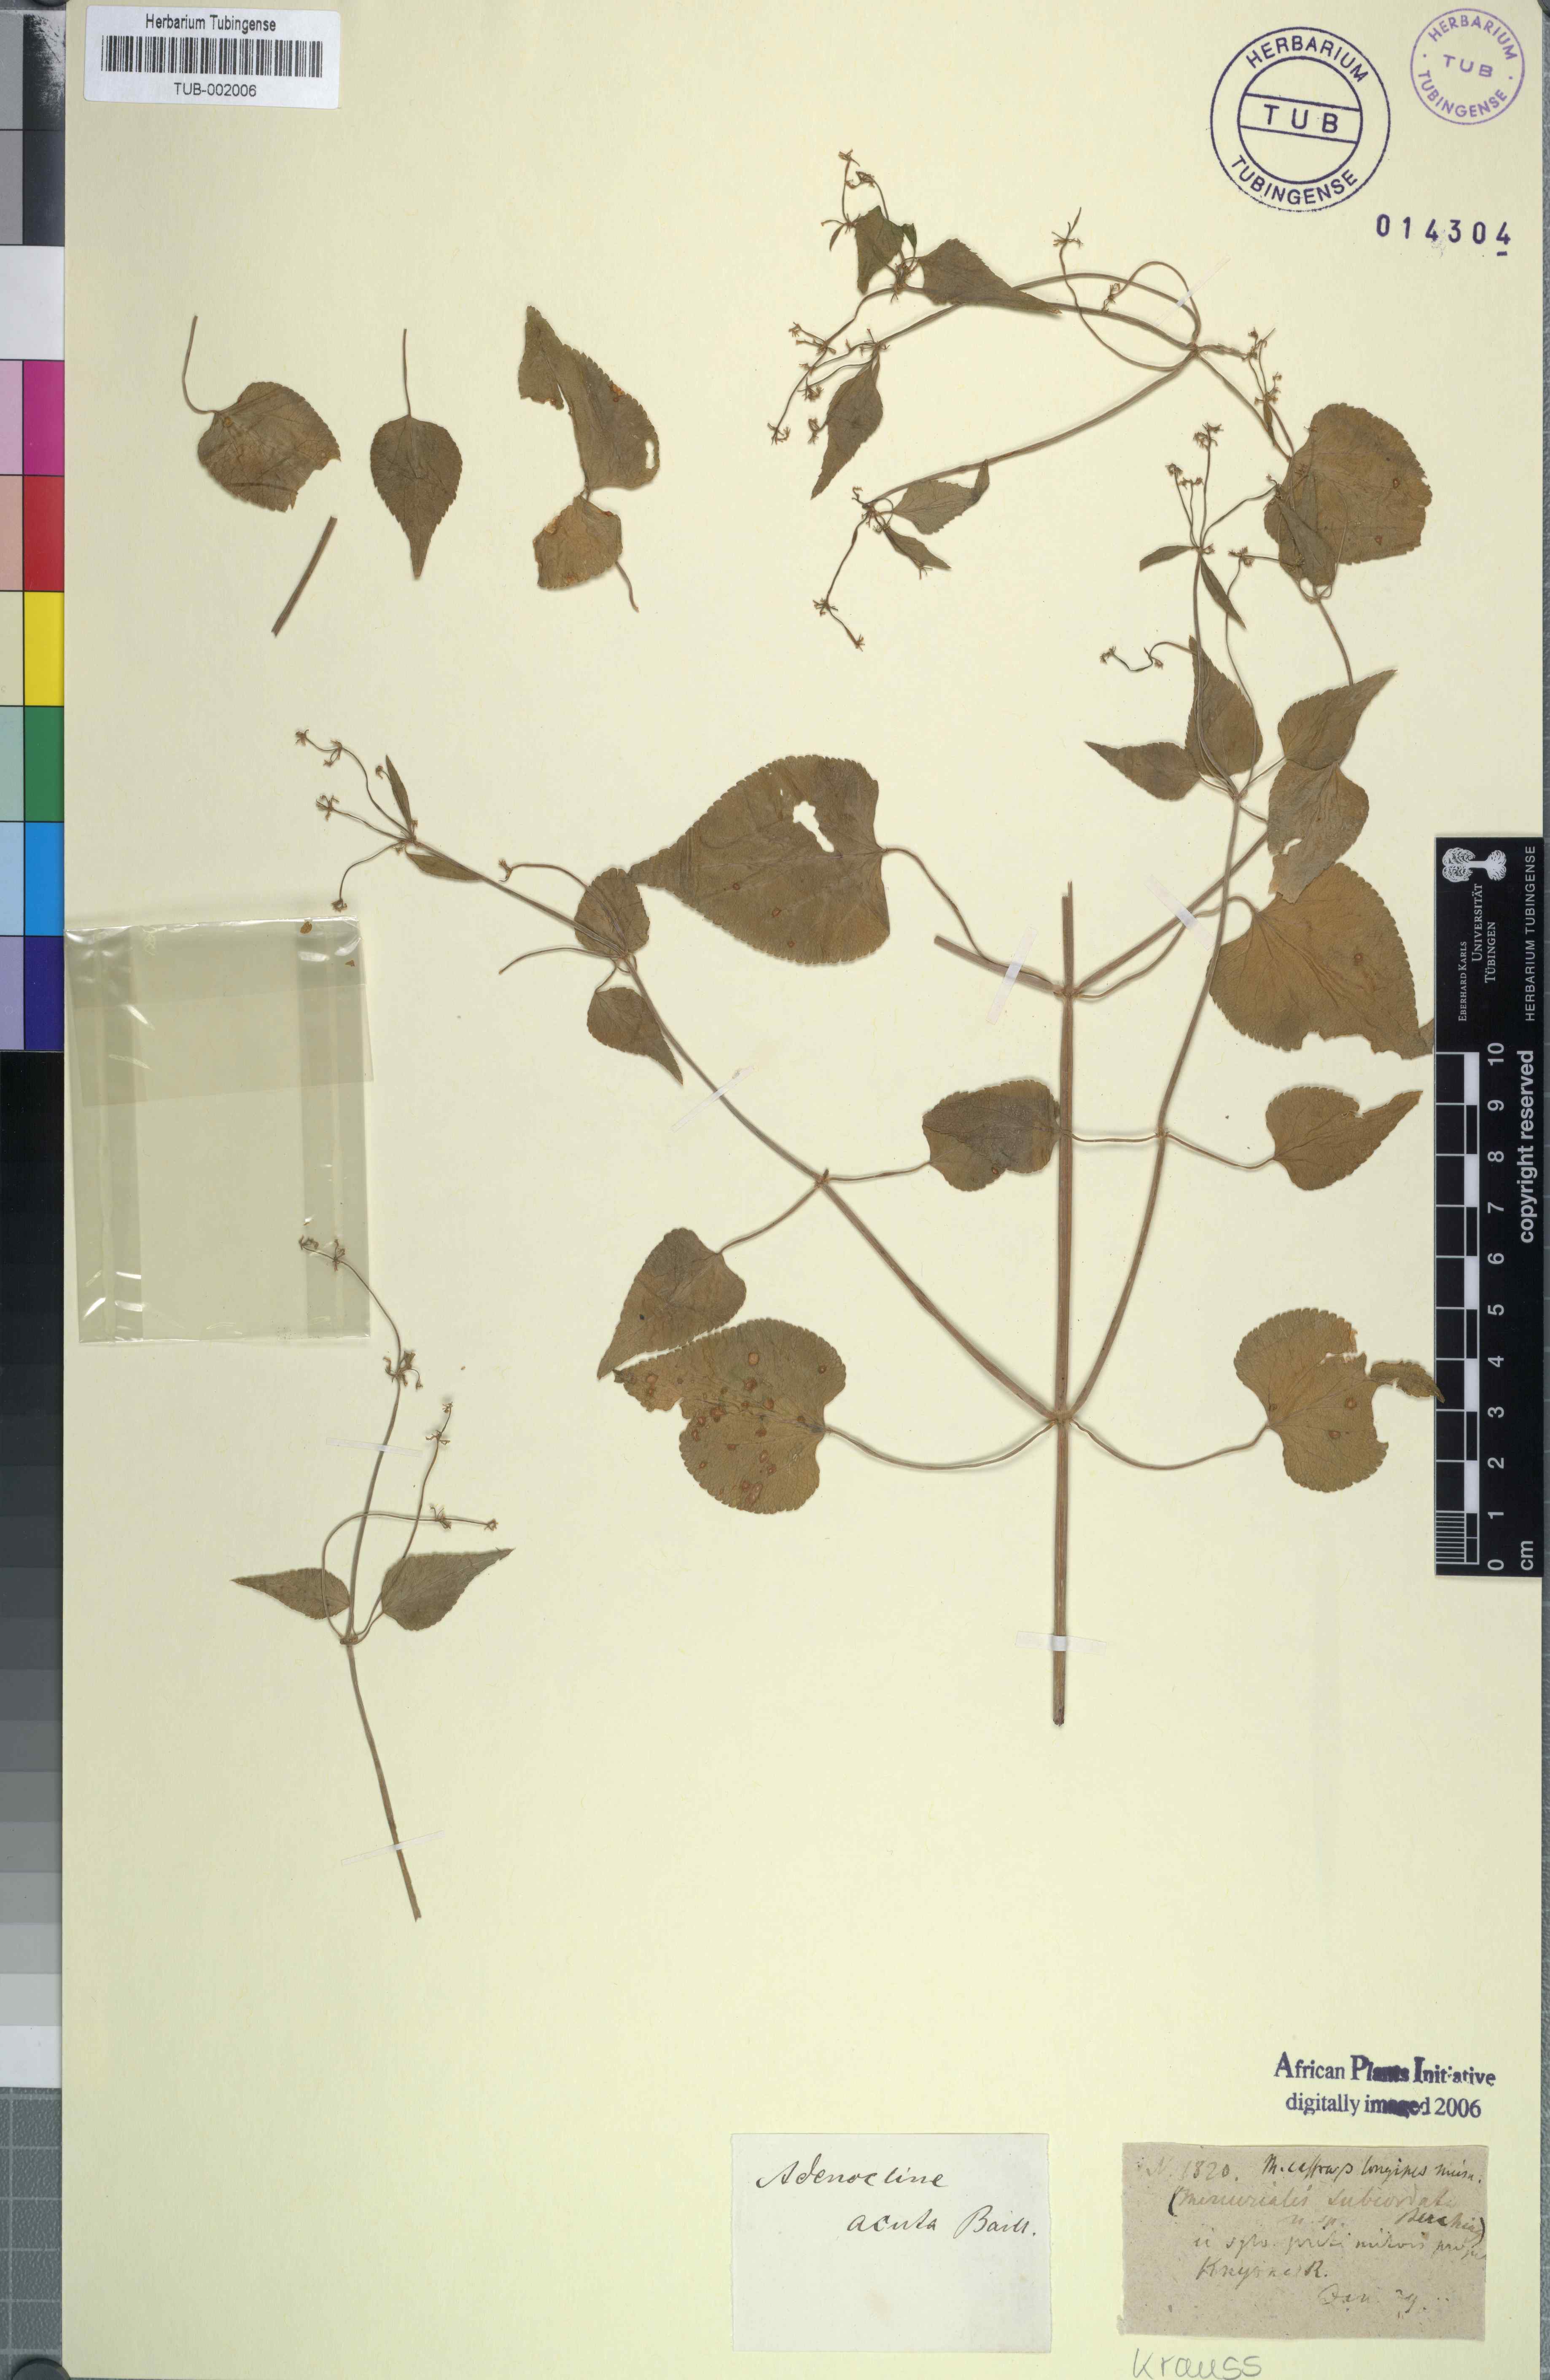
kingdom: Plantae
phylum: Tracheophyta
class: Magnoliopsida
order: Malpighiales
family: Euphorbiaceae
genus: Adenocline
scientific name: Adenocline acuta
